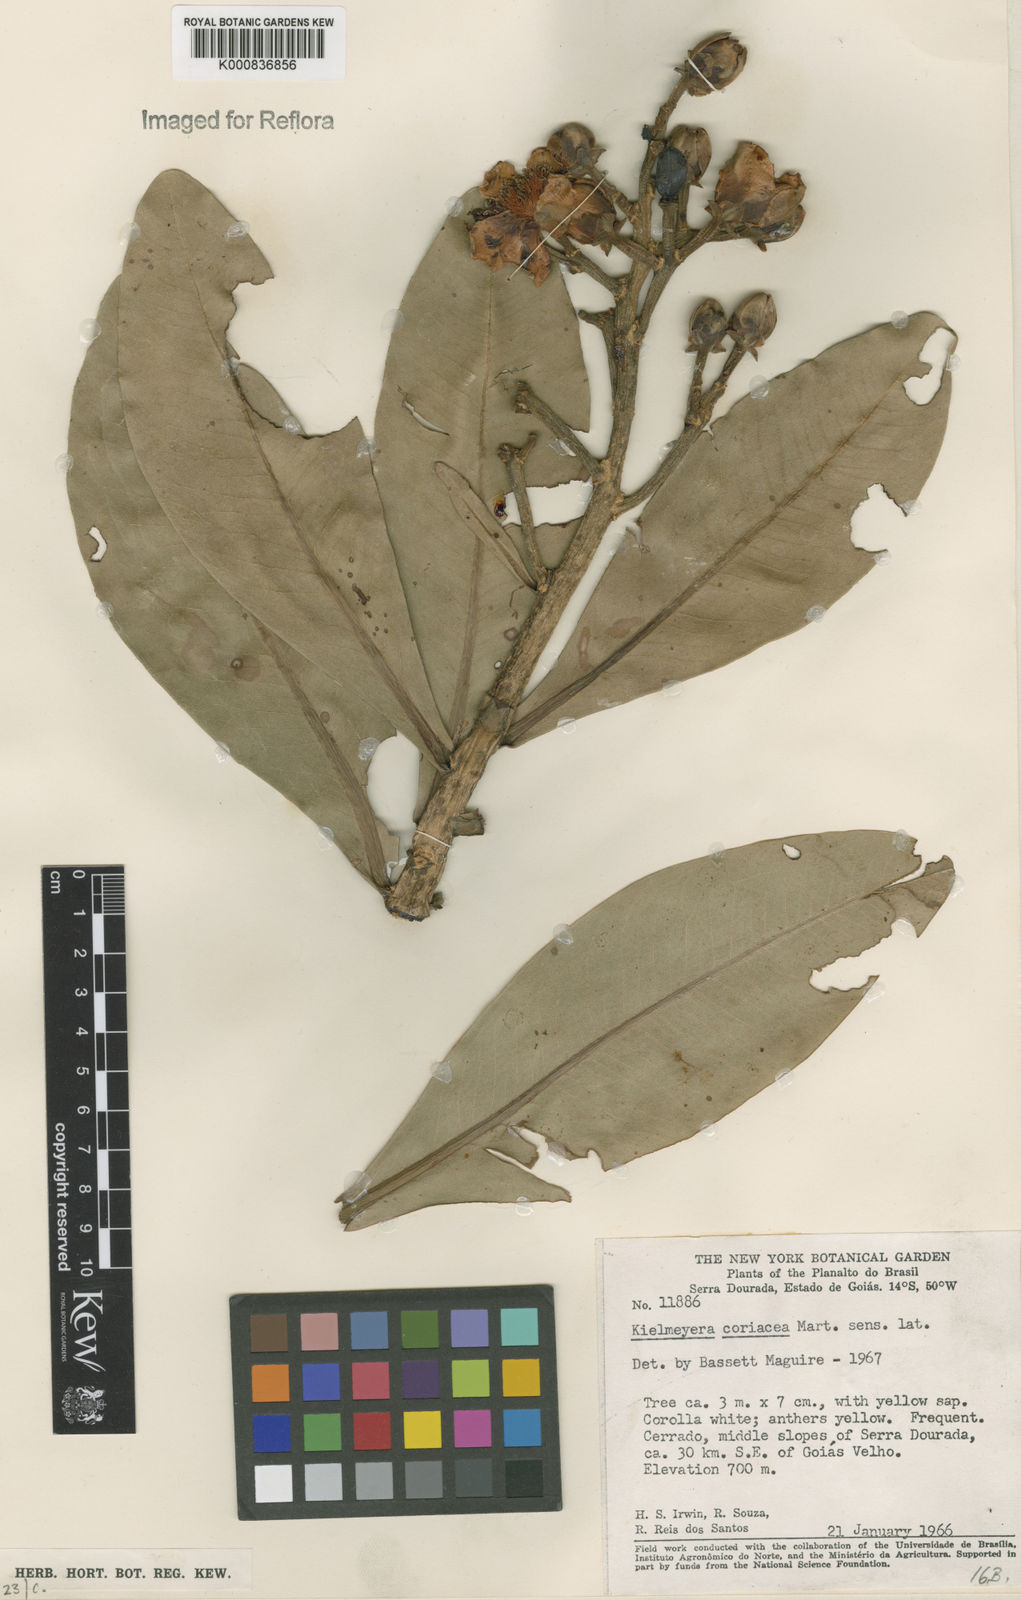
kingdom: Plantae
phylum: Tracheophyta
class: Magnoliopsida
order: Malpighiales
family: Calophyllaceae
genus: Kielmeyera
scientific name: Kielmeyera coriacea
